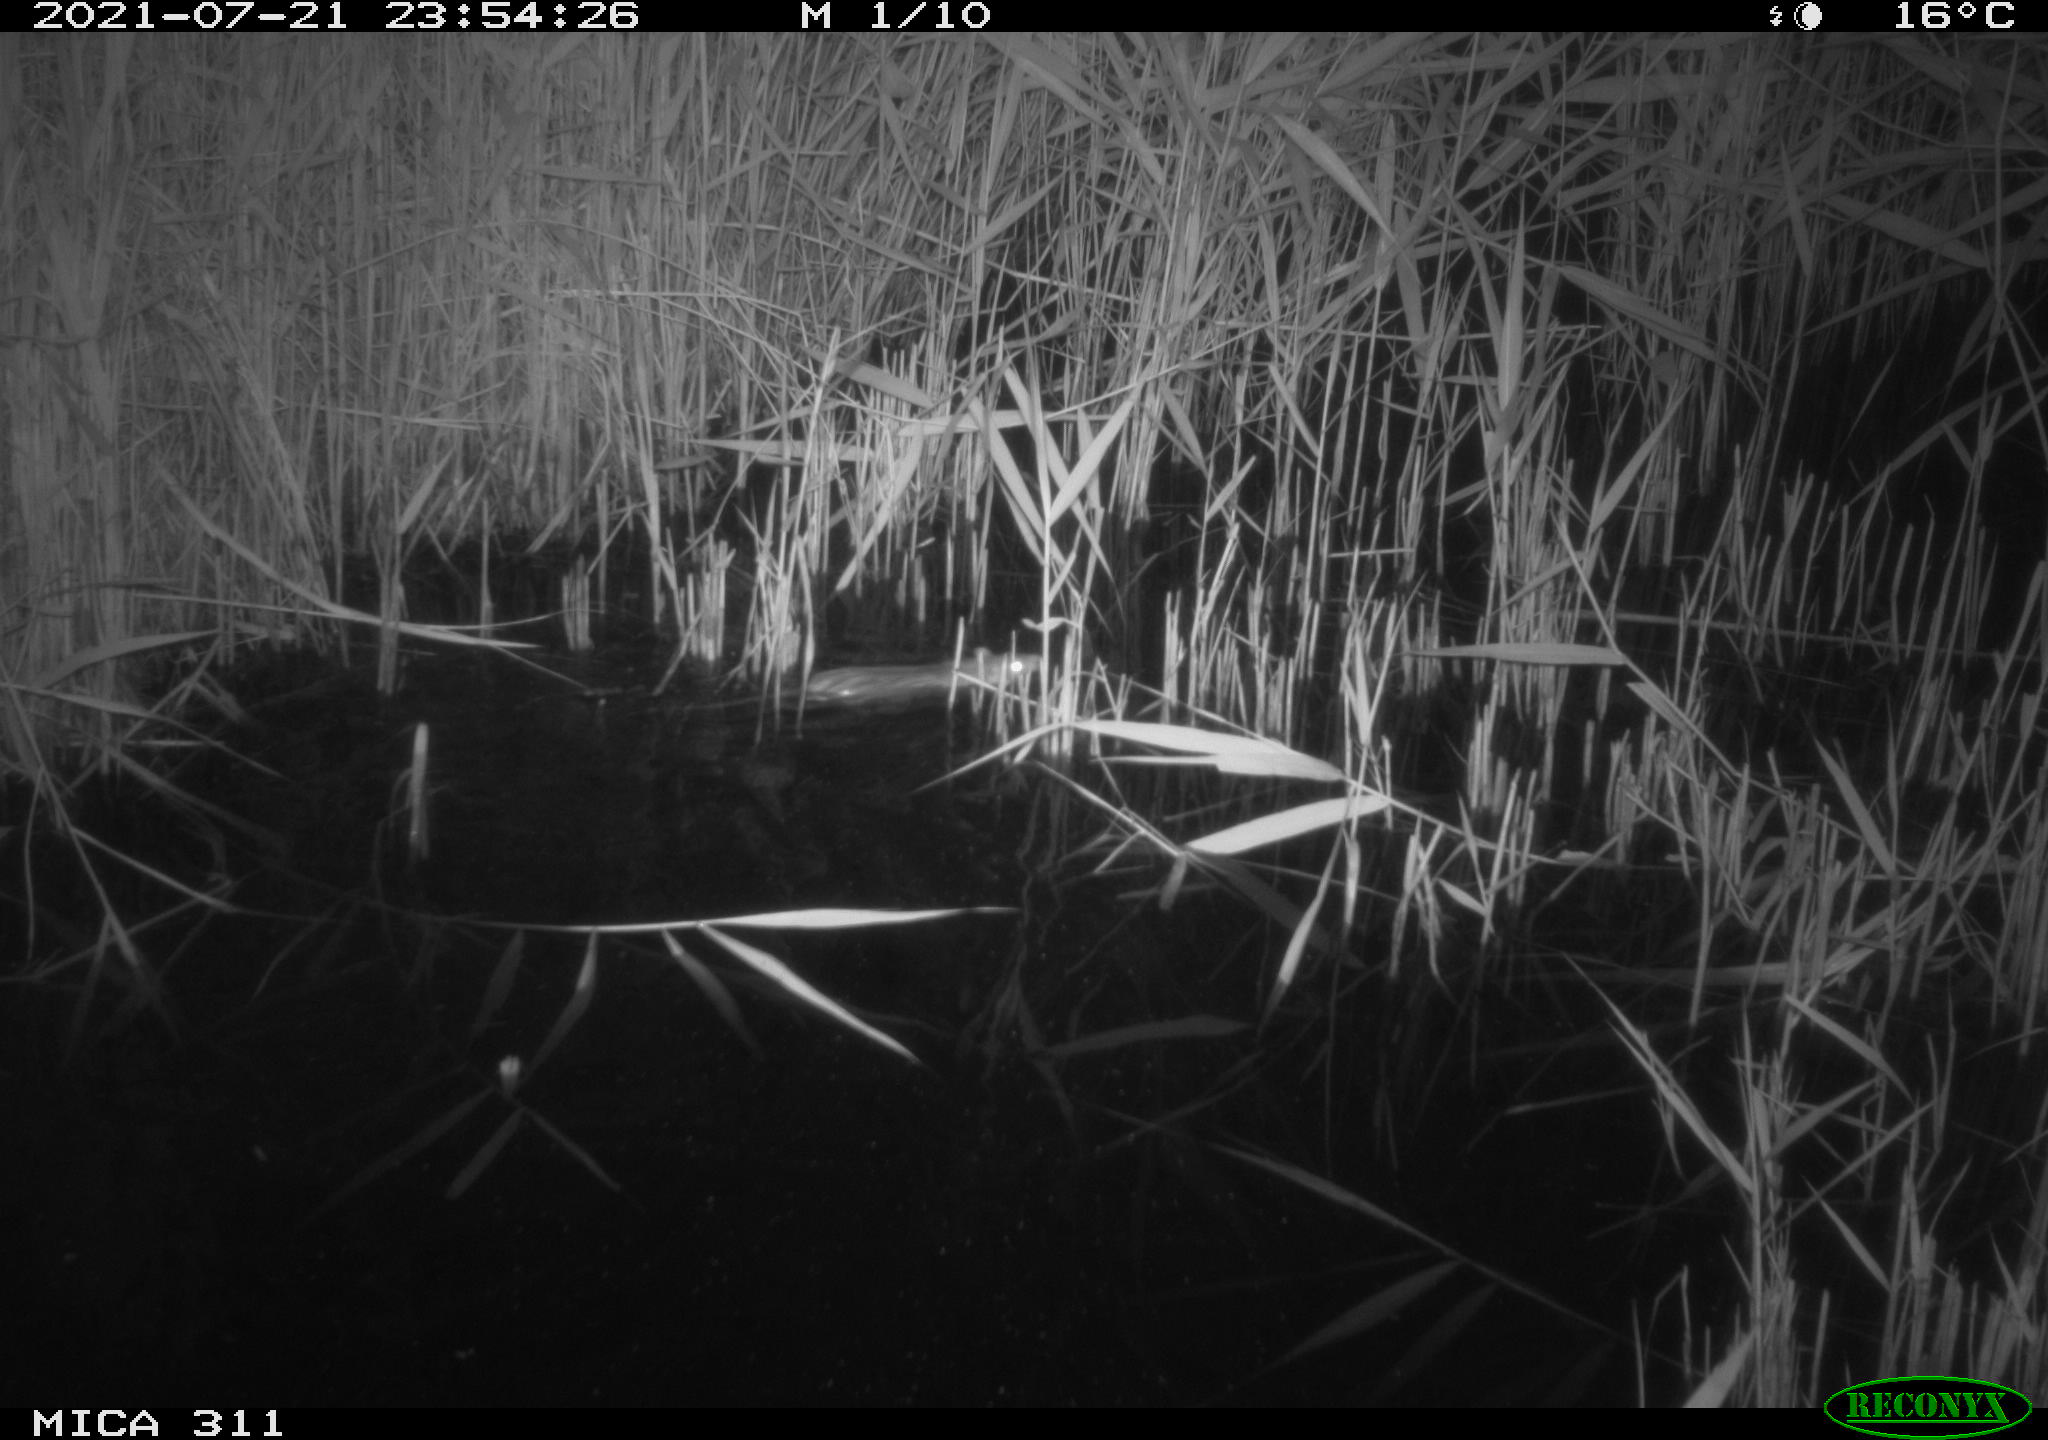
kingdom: Animalia
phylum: Chordata
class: Mammalia
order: Rodentia
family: Muridae
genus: Rattus
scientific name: Rattus norvegicus
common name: Brown rat
